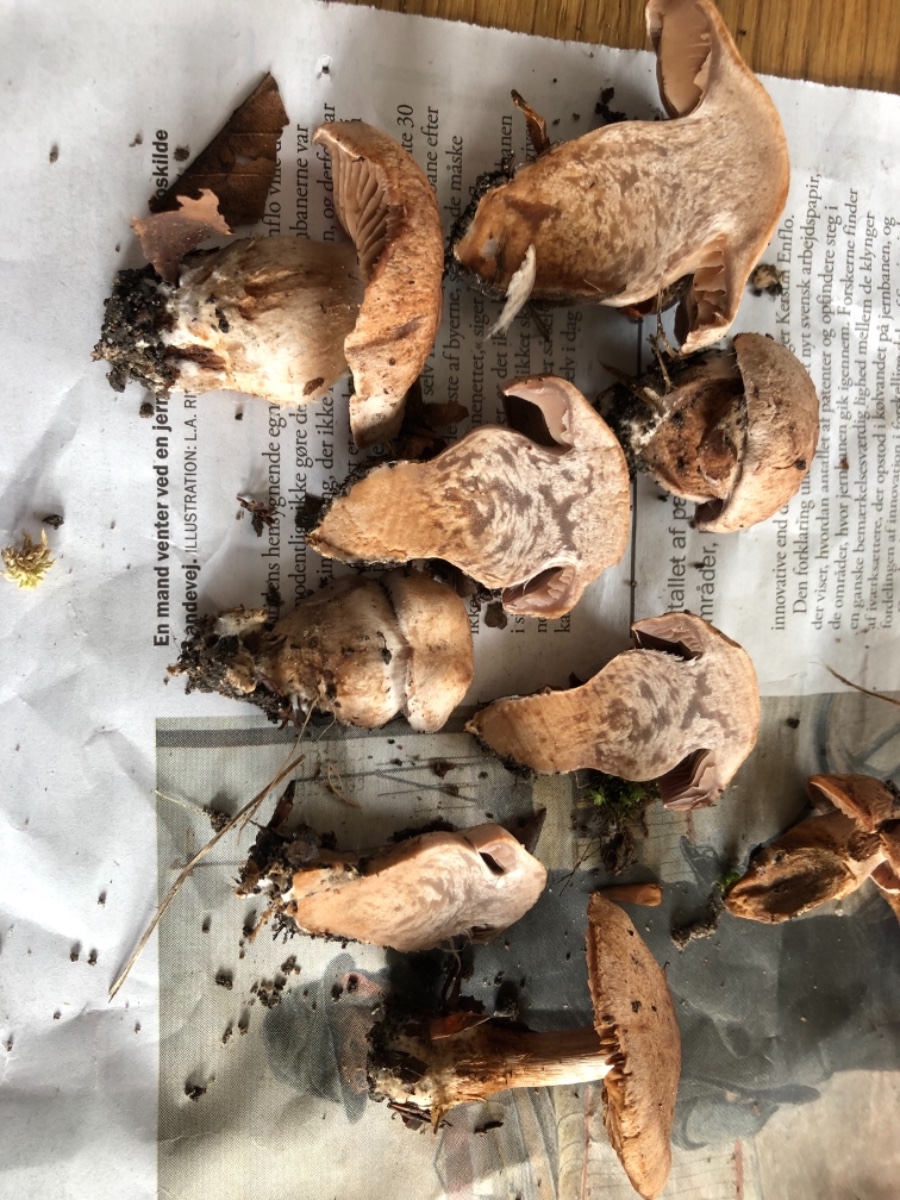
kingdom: Fungi
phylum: Basidiomycota
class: Agaricomycetes
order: Agaricales
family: Cortinariaceae
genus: Cortinarius
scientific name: Cortinarius testaceomicaceus
